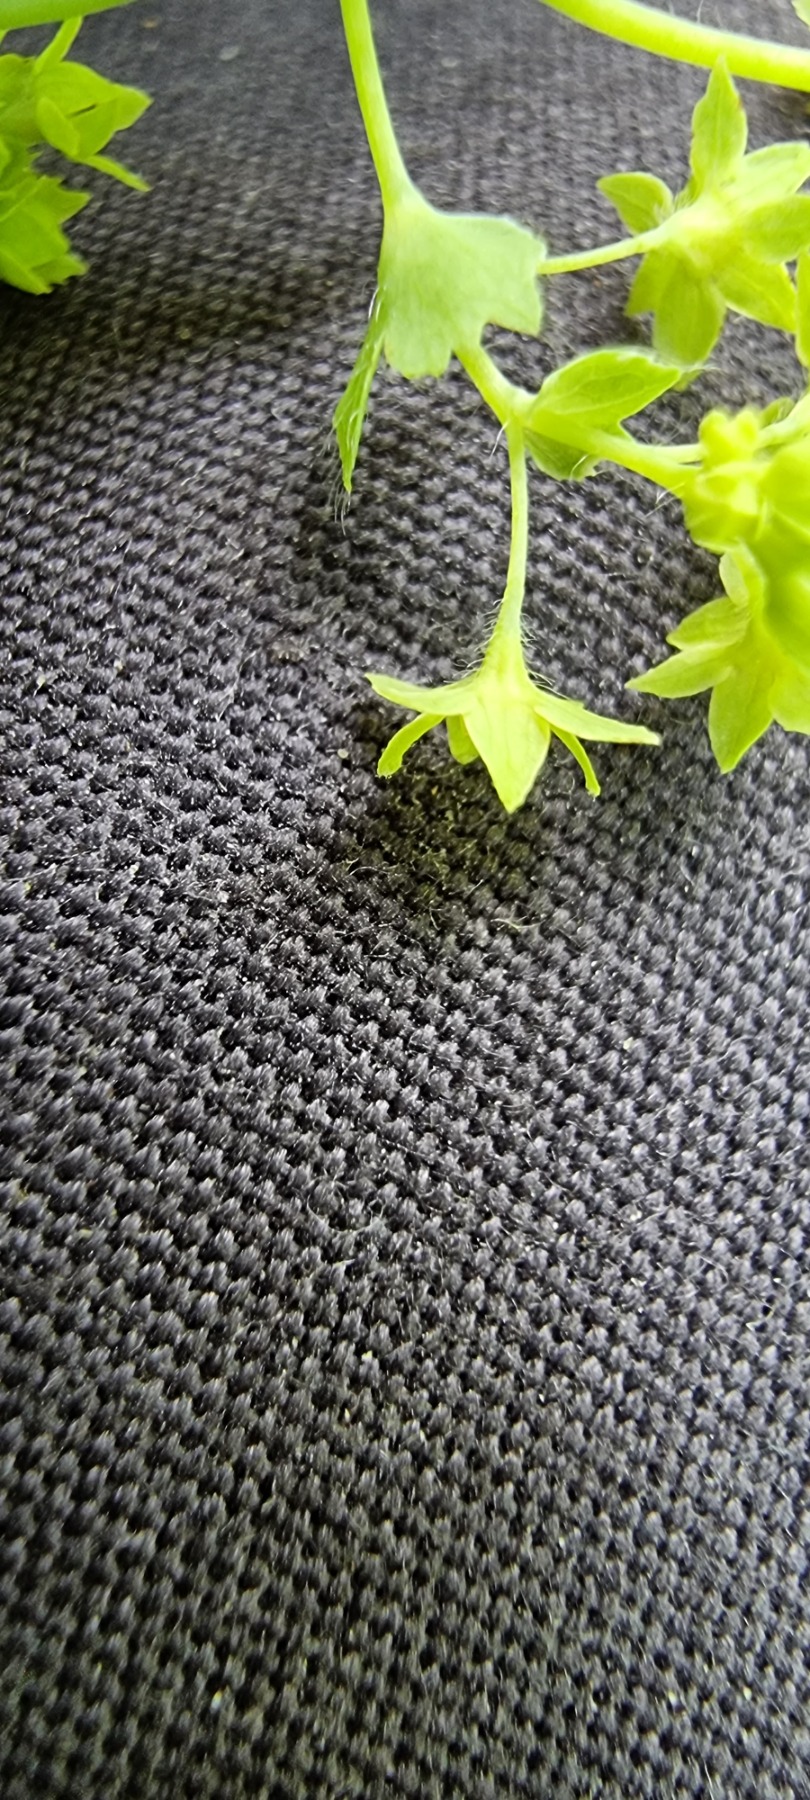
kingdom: Plantae
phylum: Tracheophyta
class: Magnoliopsida
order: Rosales
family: Rosaceae
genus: Alchemilla
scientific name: Alchemilla mollis
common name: Lådden løvefod
